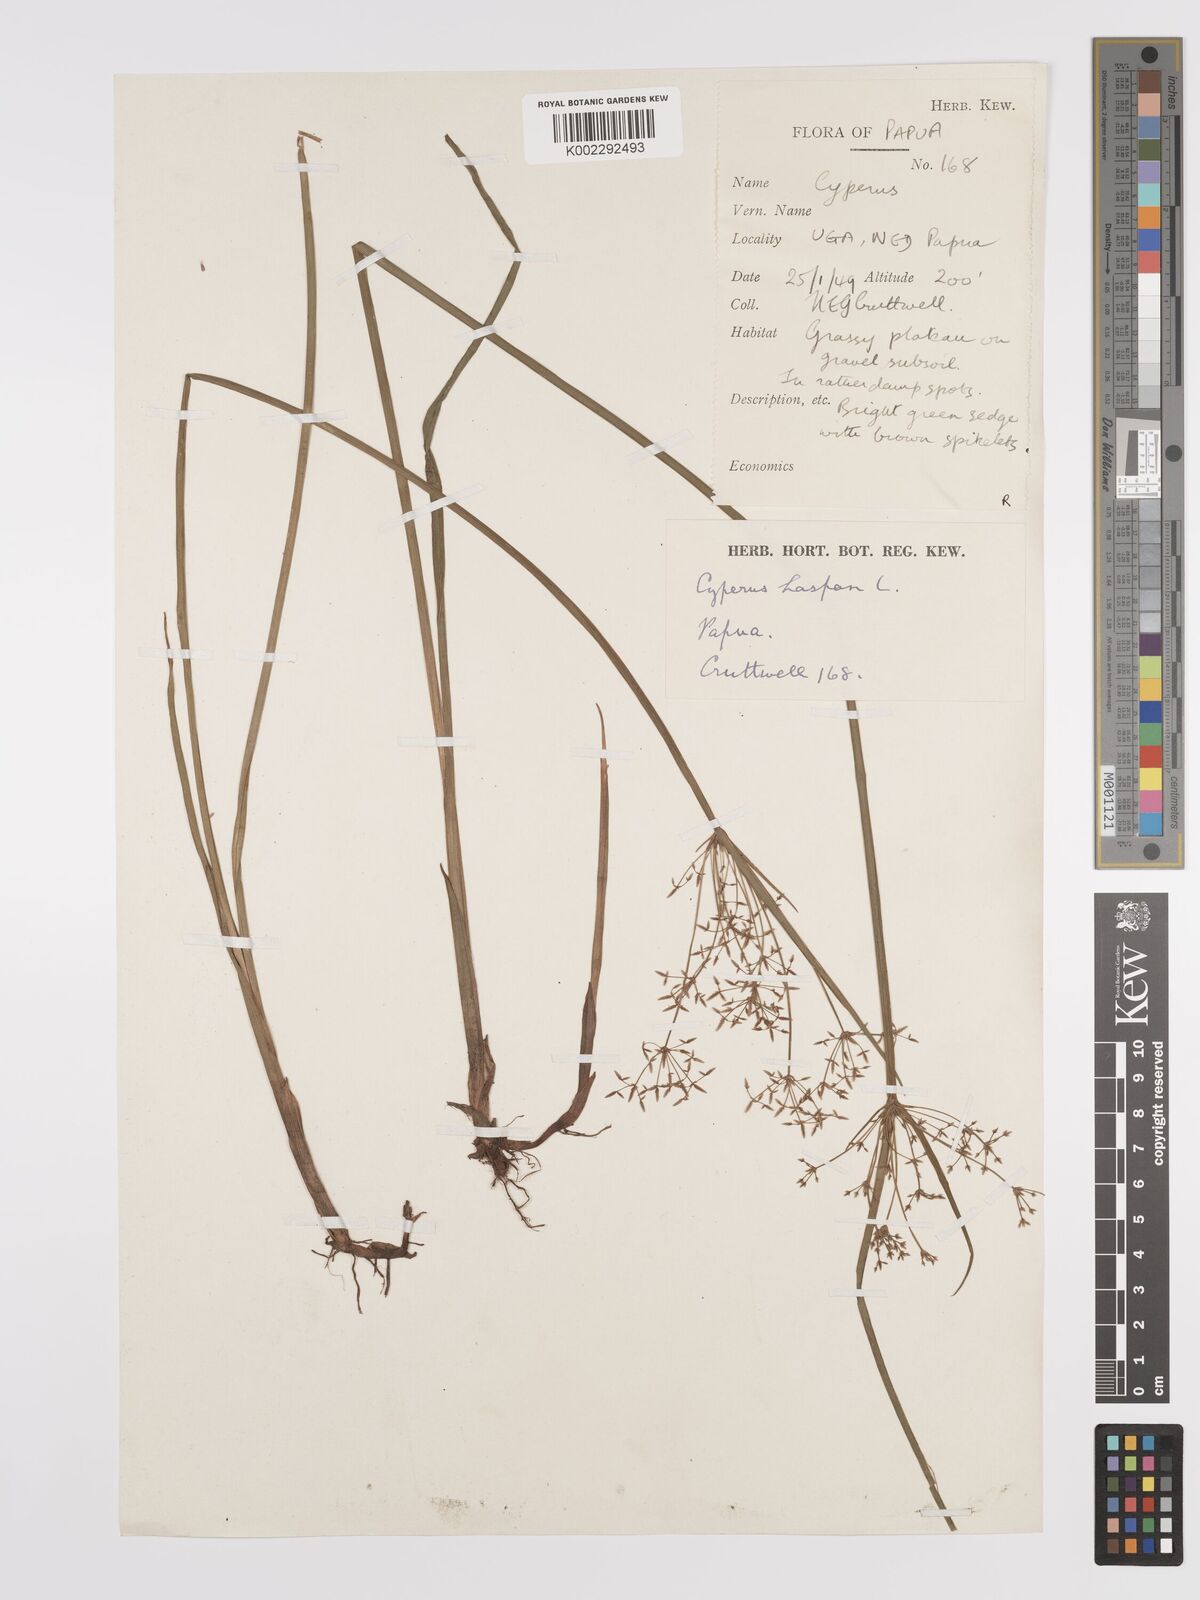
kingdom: Plantae
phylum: Tracheophyta
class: Liliopsida
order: Poales
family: Cyperaceae
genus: Cyperus
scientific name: Cyperus haspan
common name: Haspan flatsedge
